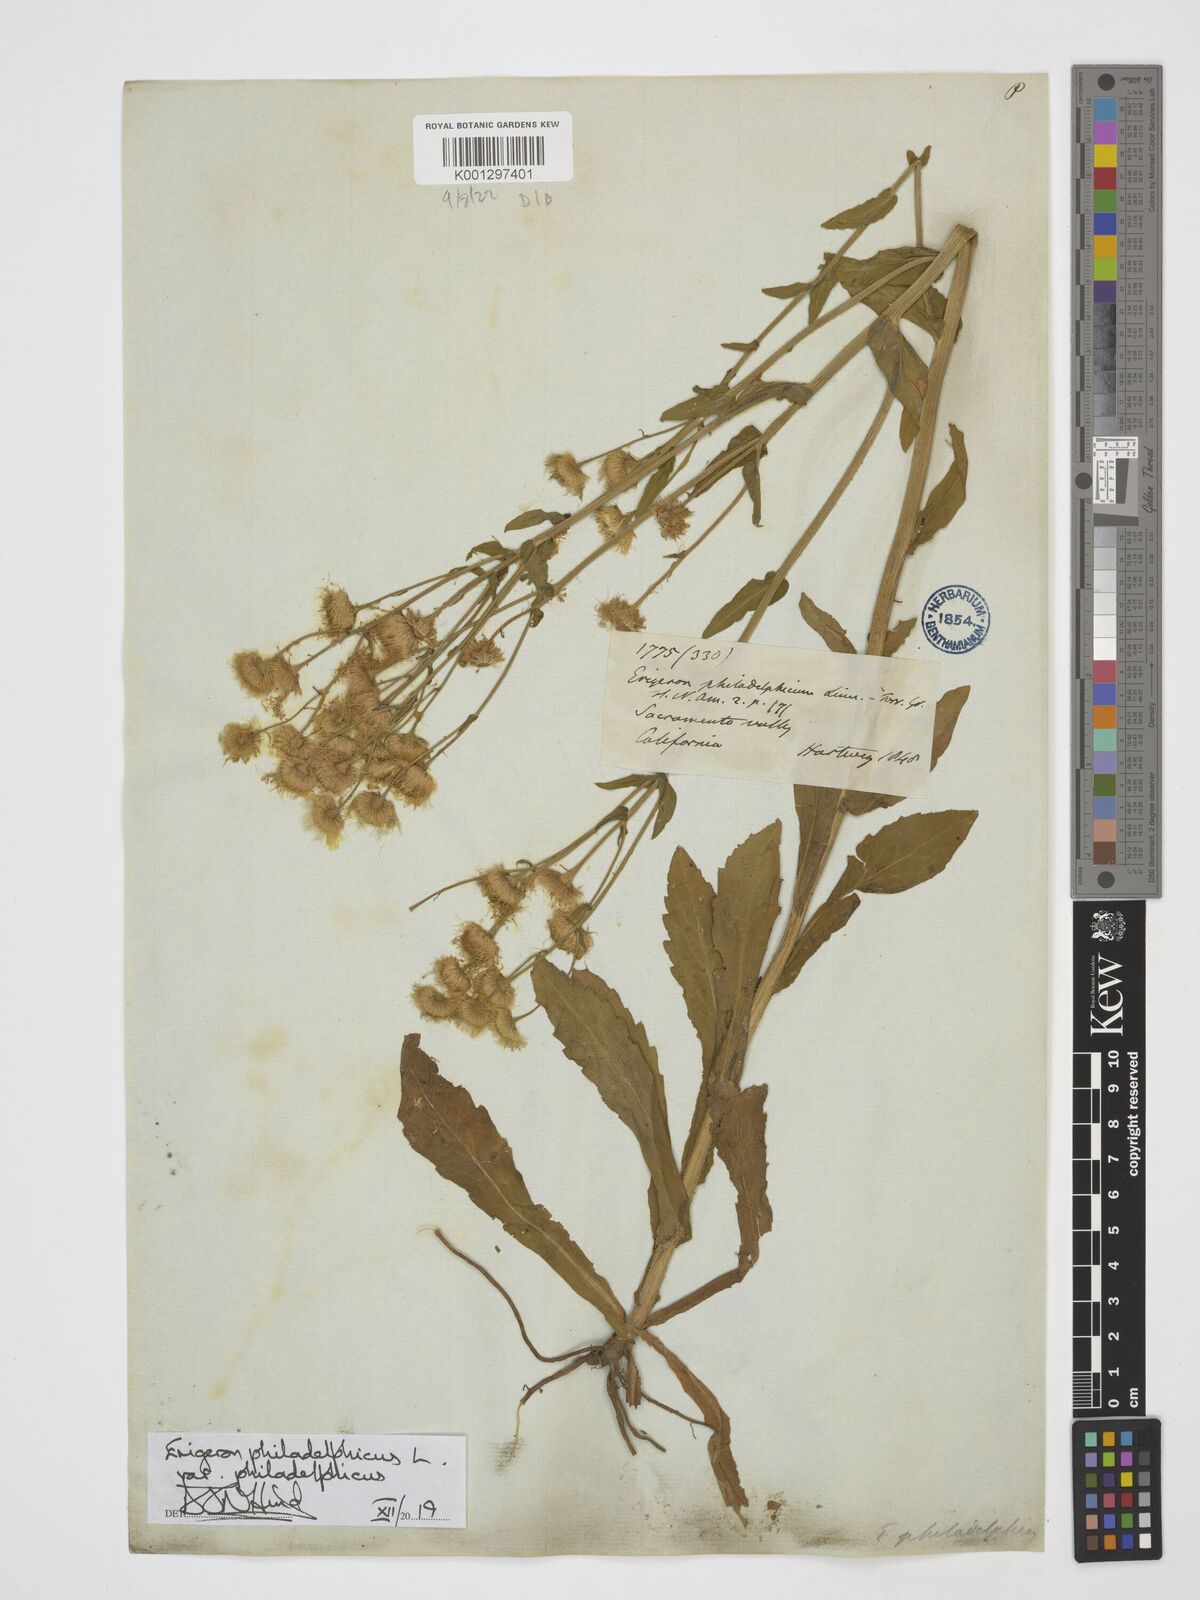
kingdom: Plantae
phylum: Tracheophyta
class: Magnoliopsida
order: Asterales
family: Asteraceae
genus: Erigeron
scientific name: Erigeron philadelphicus
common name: Robin's-plantain
